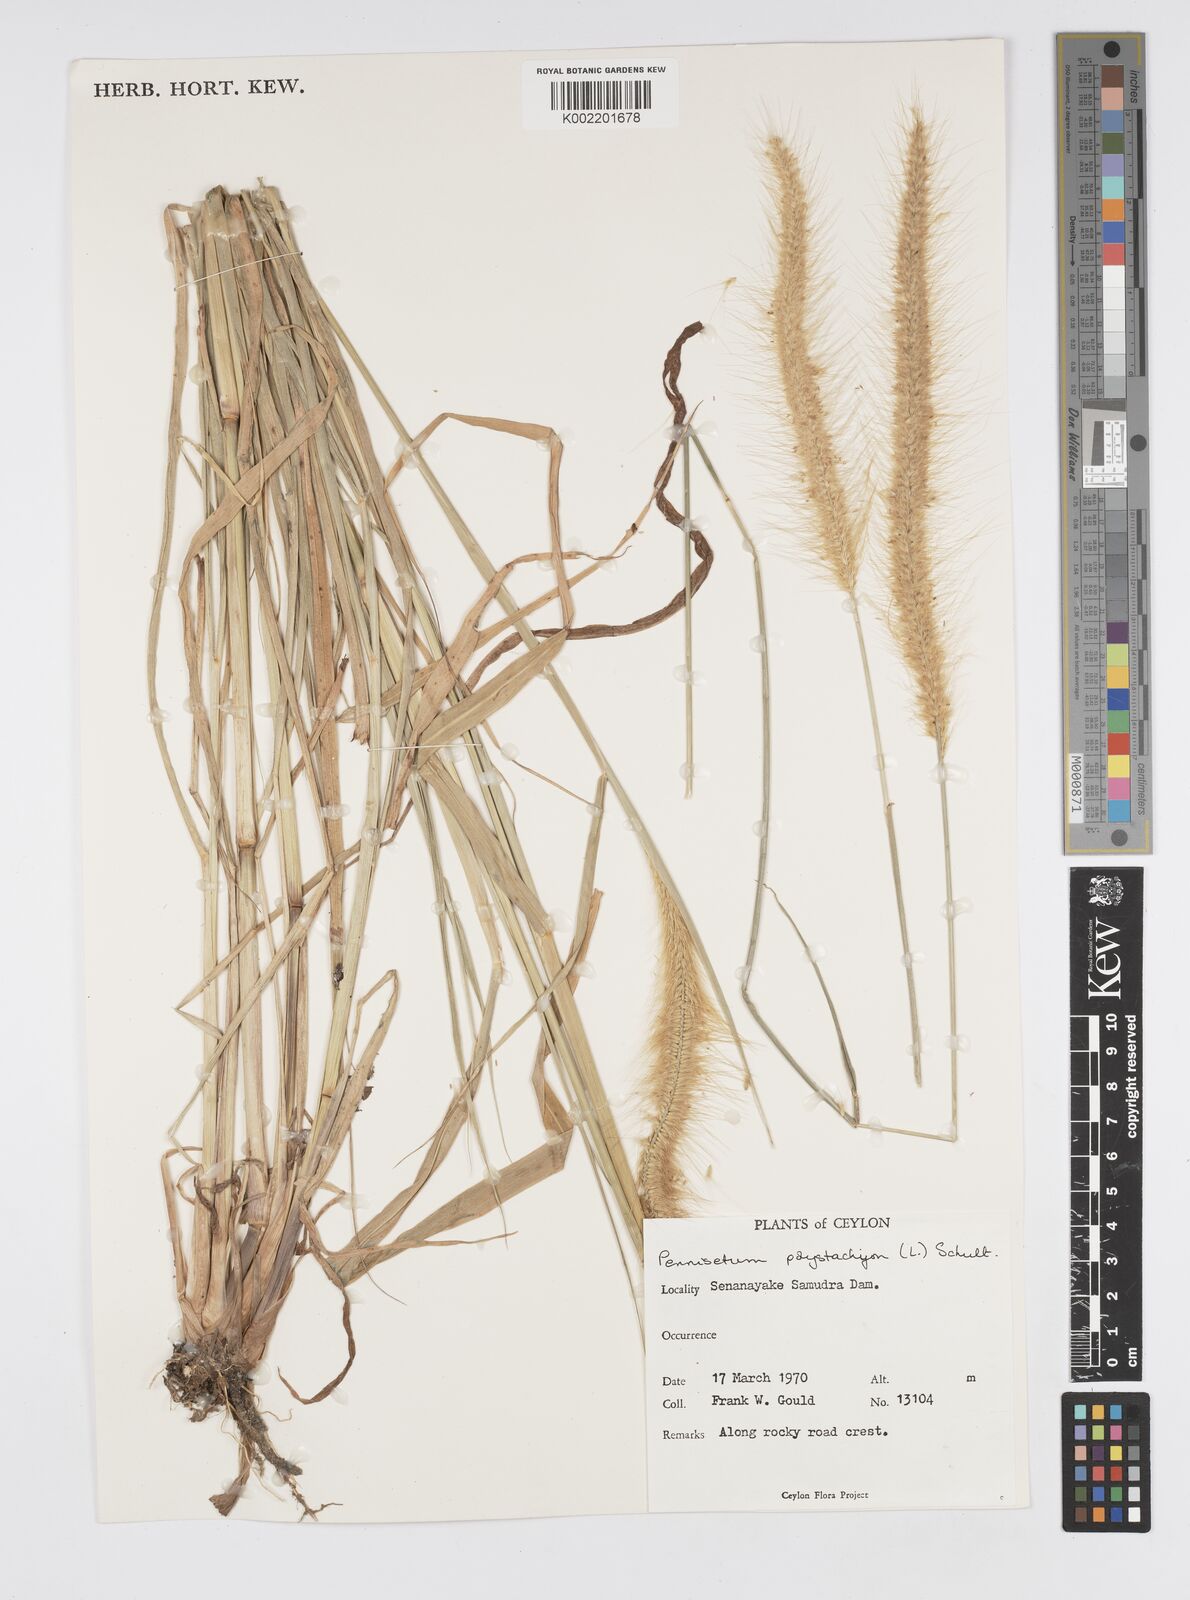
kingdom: Plantae
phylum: Tracheophyta
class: Liliopsida
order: Poales
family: Poaceae
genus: Setaria
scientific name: Setaria parviflora
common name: Knotroot bristle-grass
